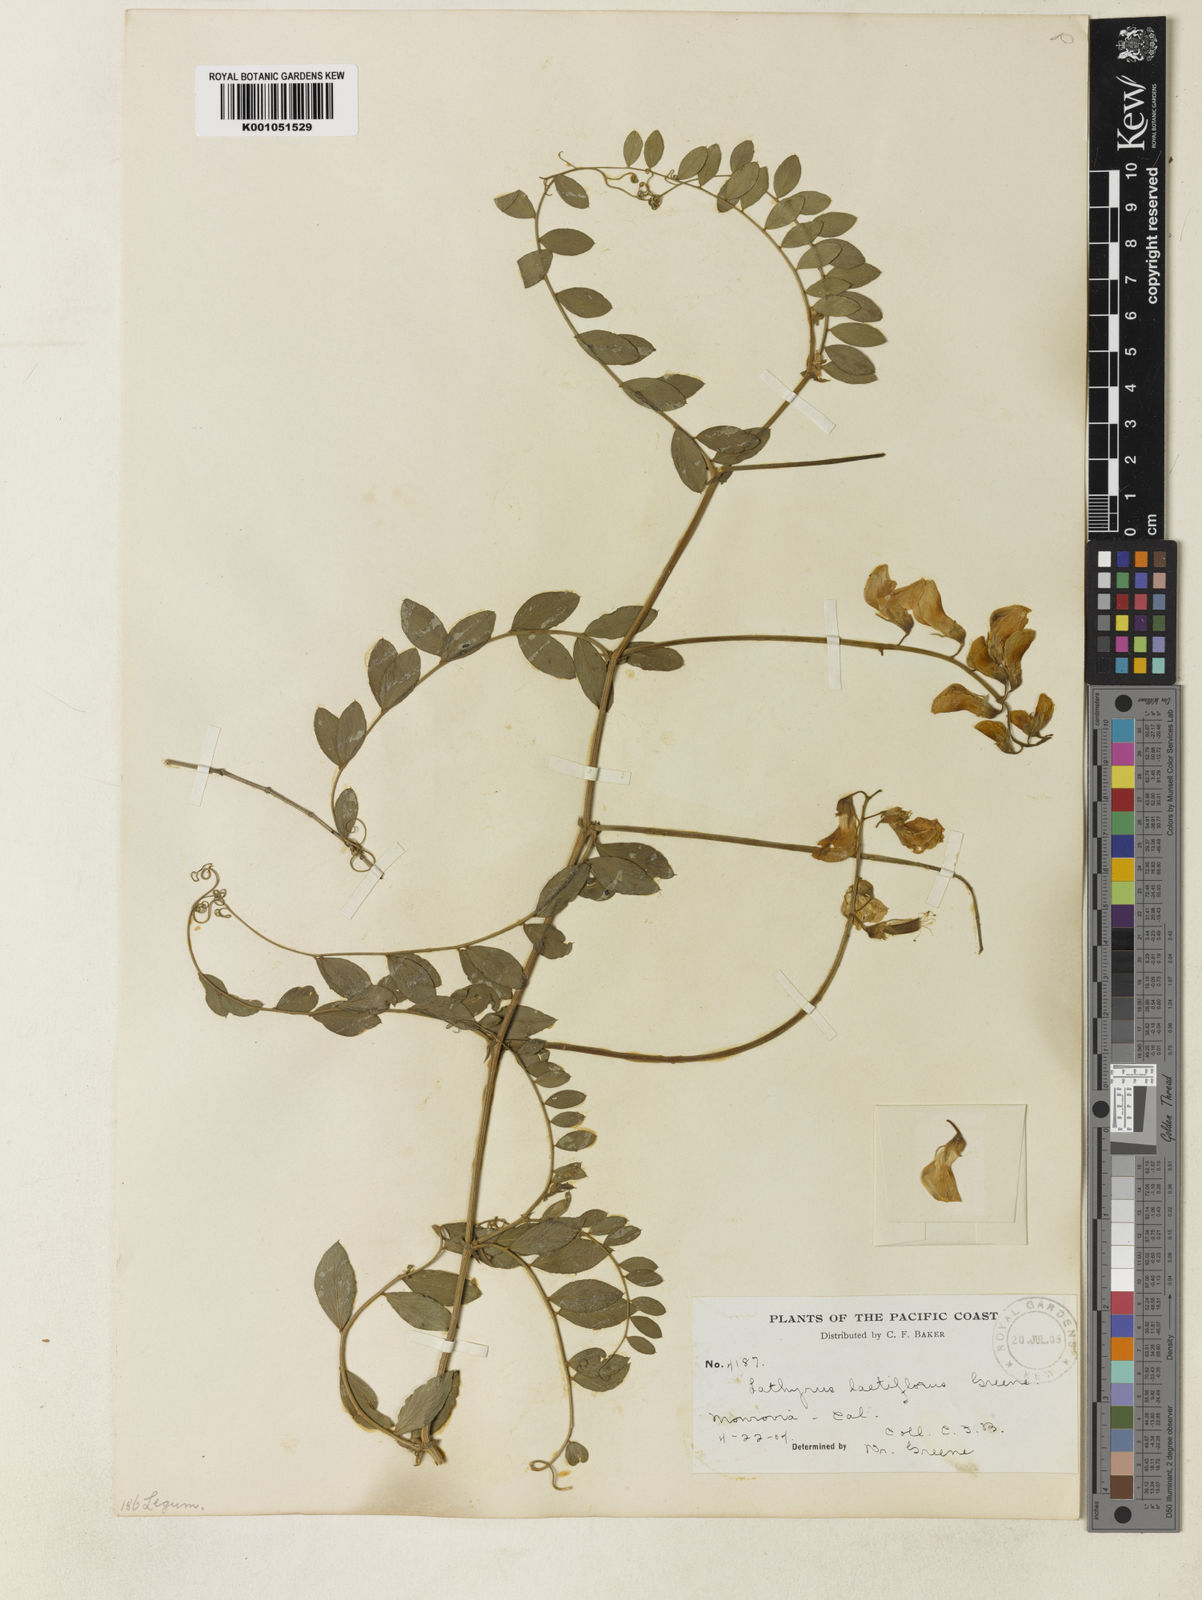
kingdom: Plantae
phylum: Tracheophyta
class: Magnoliopsida
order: Fabales
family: Fabaceae
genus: Lathyrus
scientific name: Lathyrus vestitus
